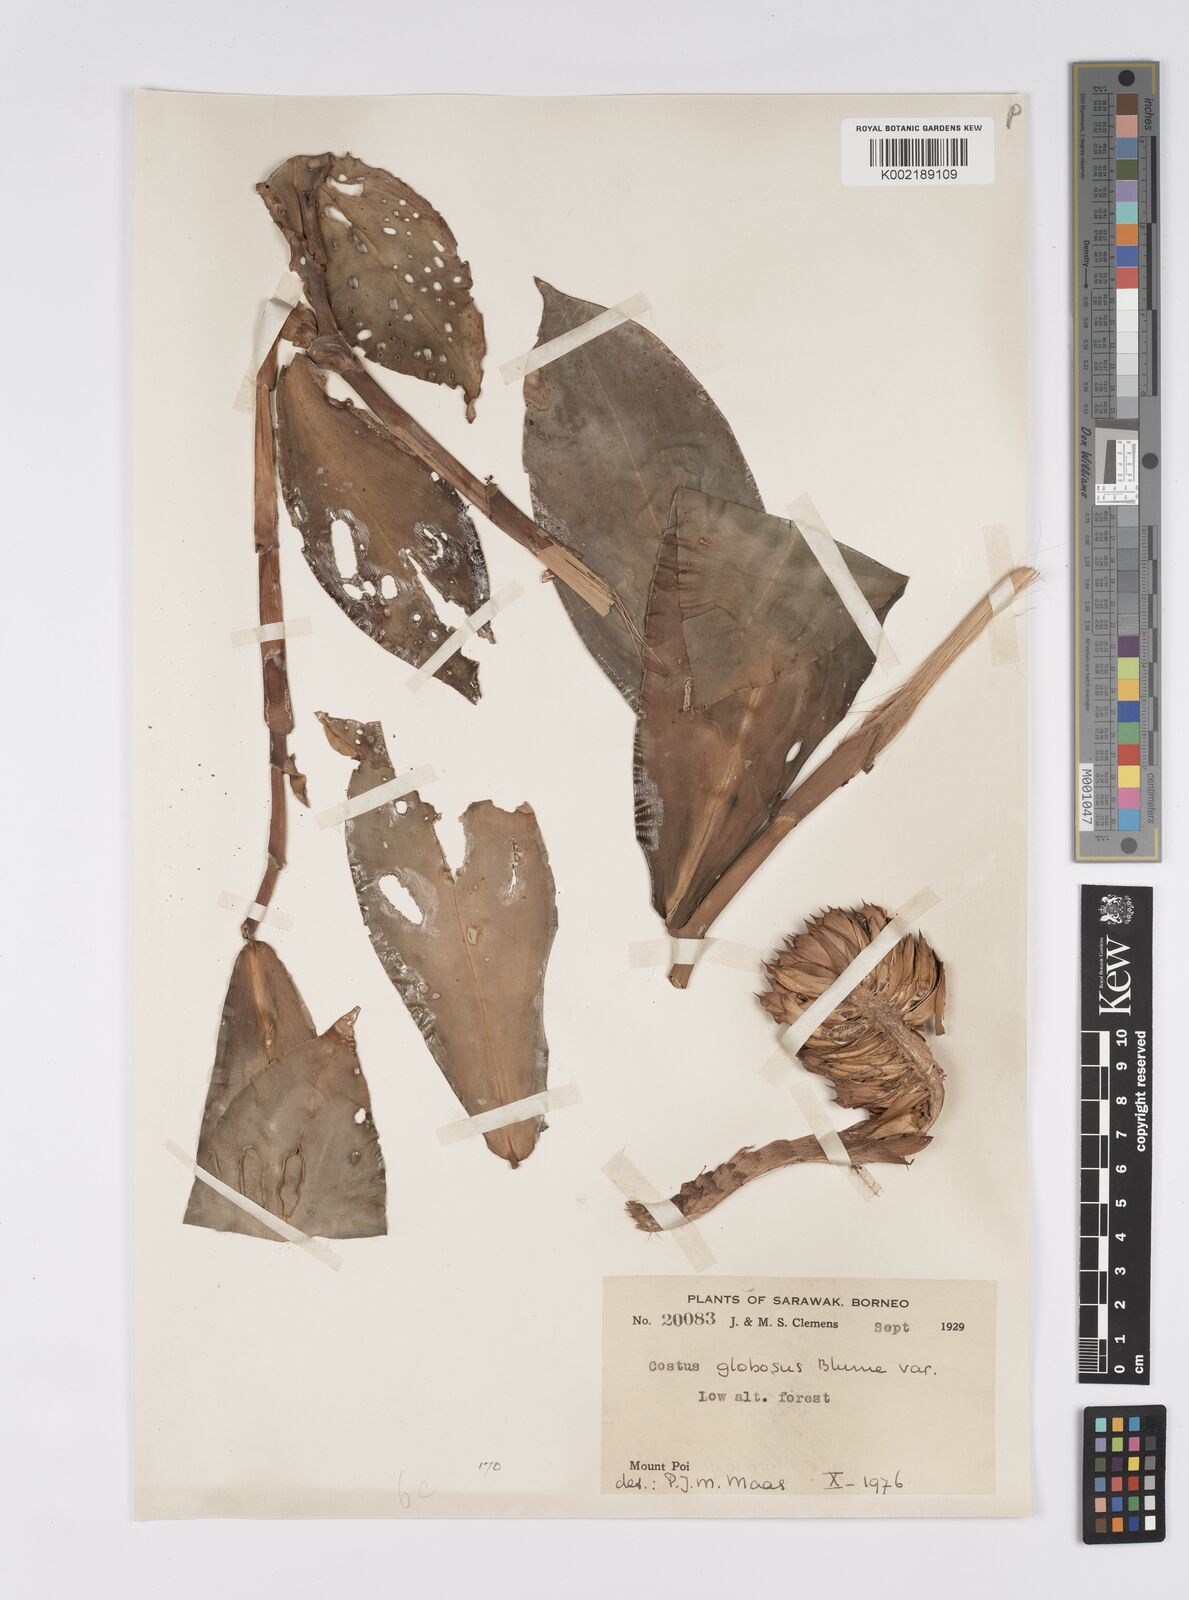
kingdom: Plantae
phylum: Tracheophyta
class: Liliopsida
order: Zingiberales
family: Costaceae
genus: Hellenia
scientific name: Hellenia globosa
